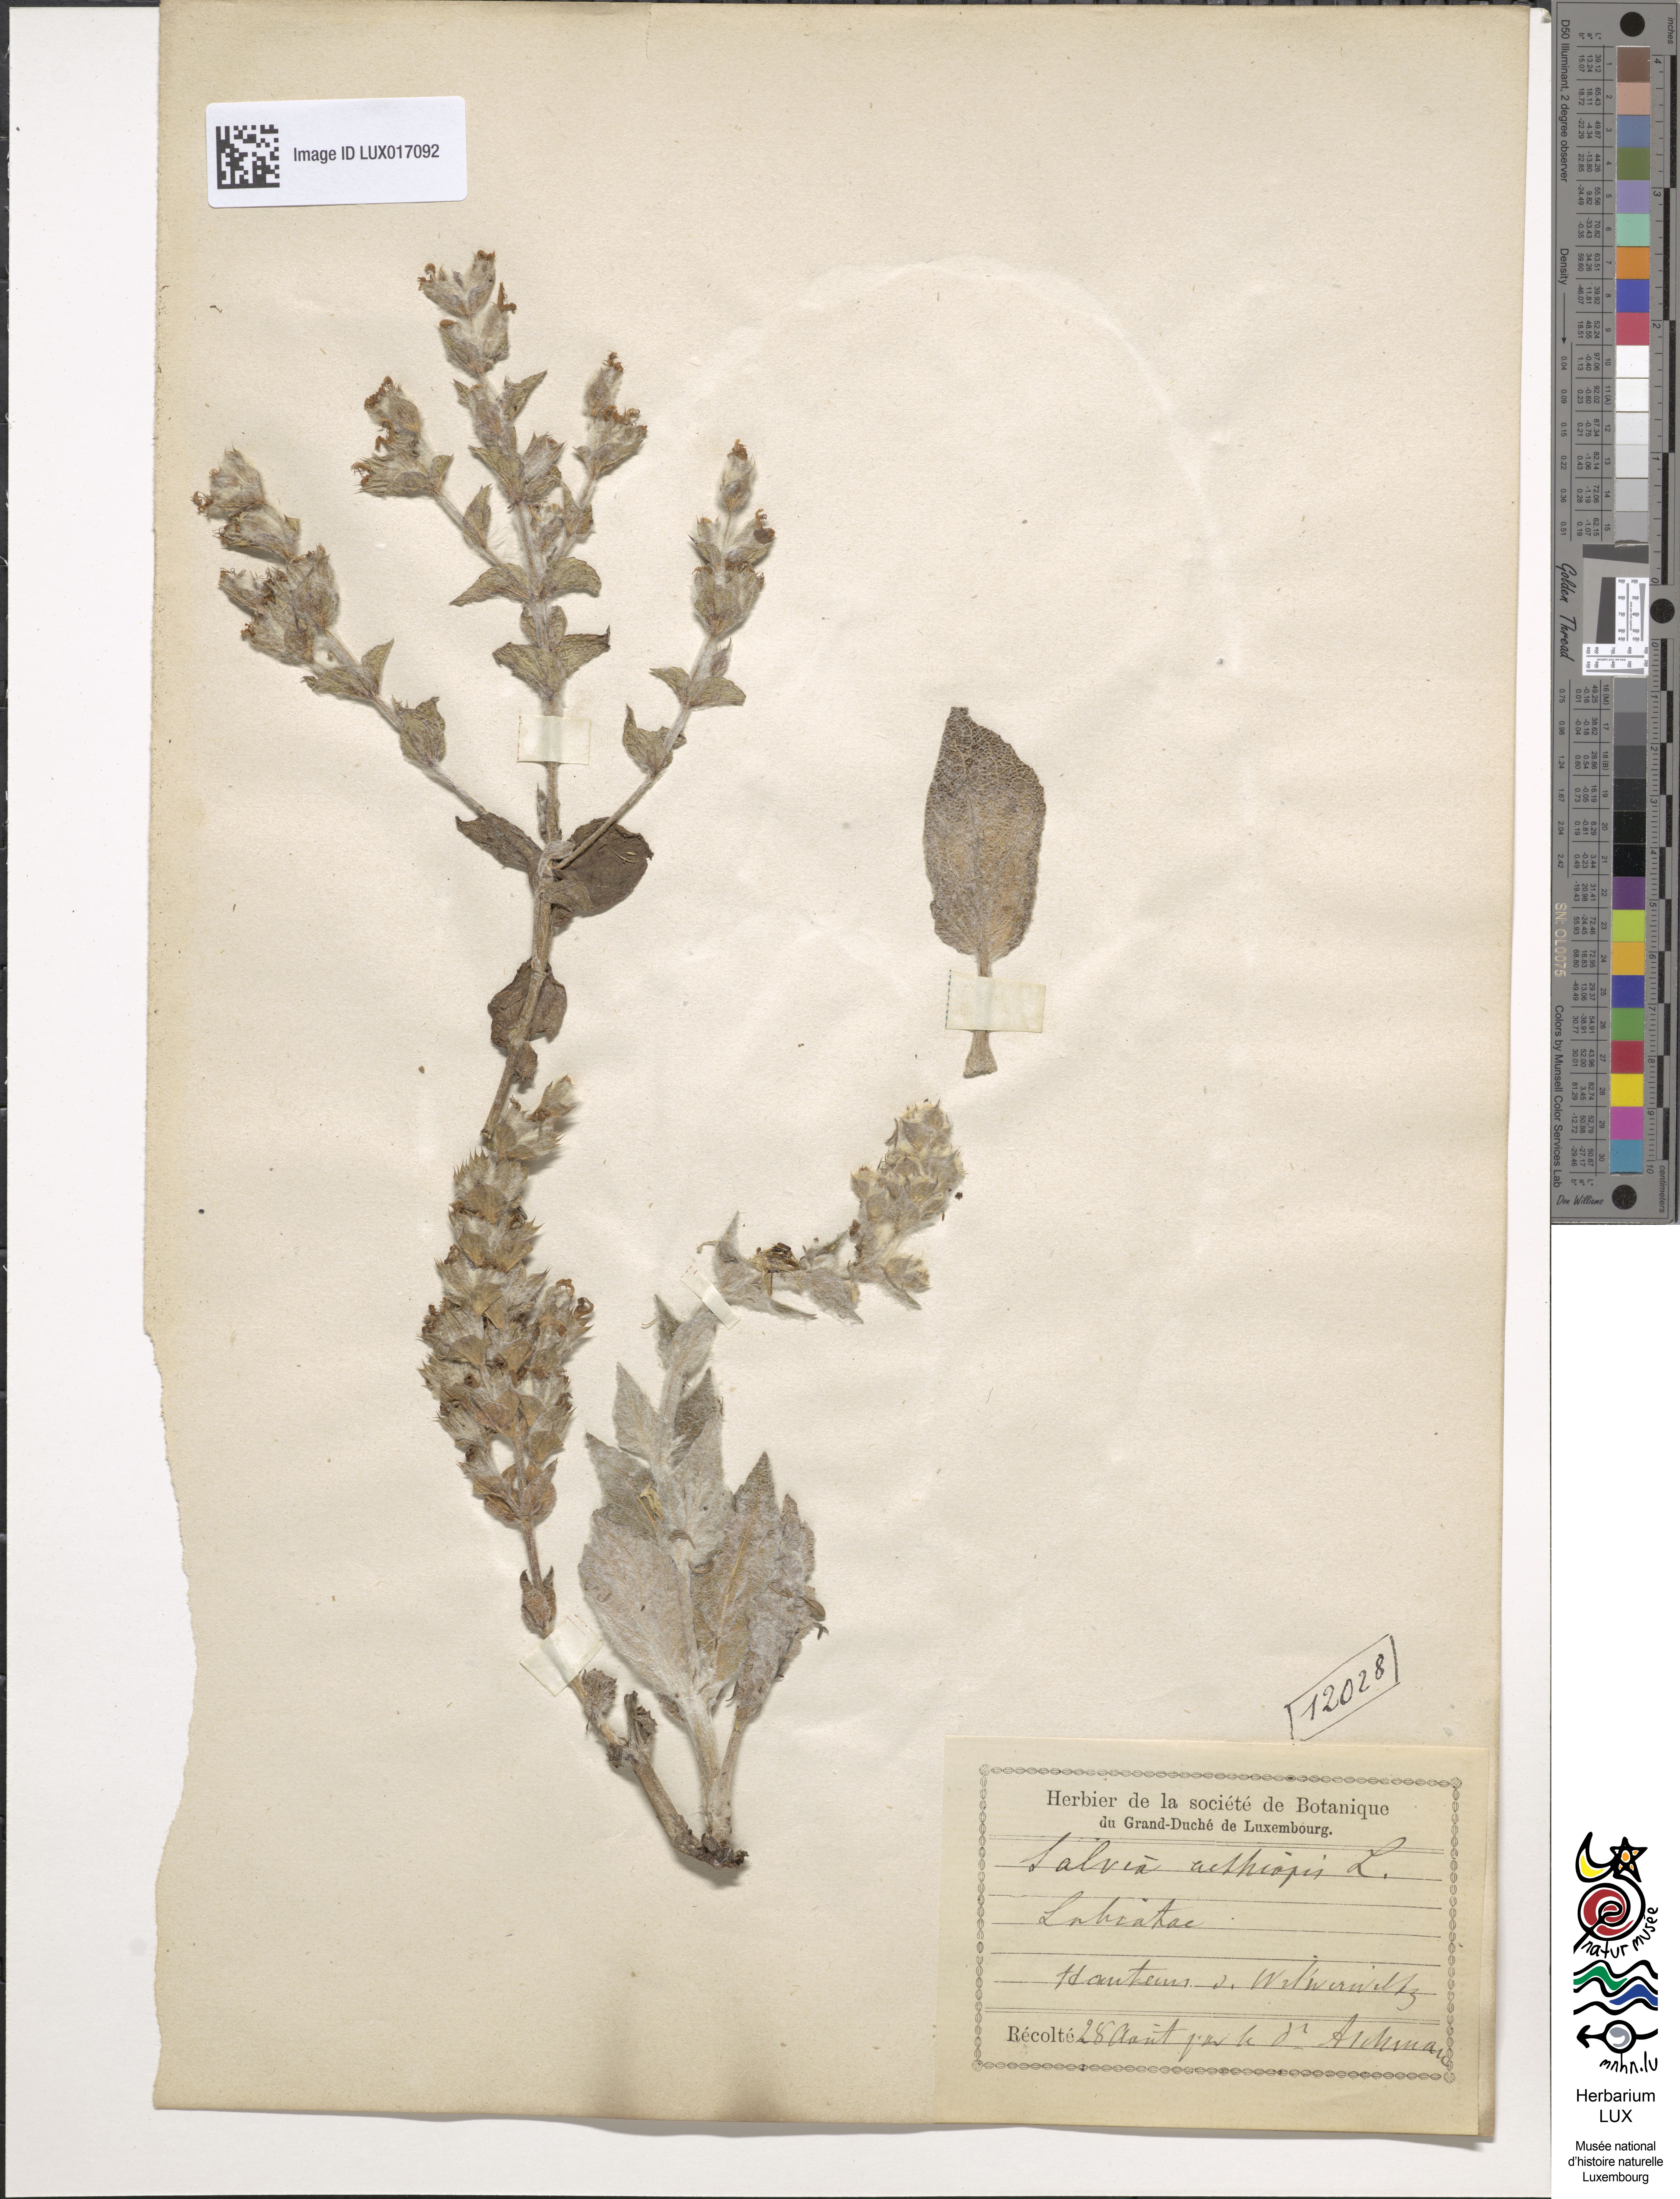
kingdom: Plantae
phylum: Tracheophyta
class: Magnoliopsida
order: Lamiales
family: Lamiaceae
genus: Salvia
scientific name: Salvia aethiopis
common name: Mediterranean sage
